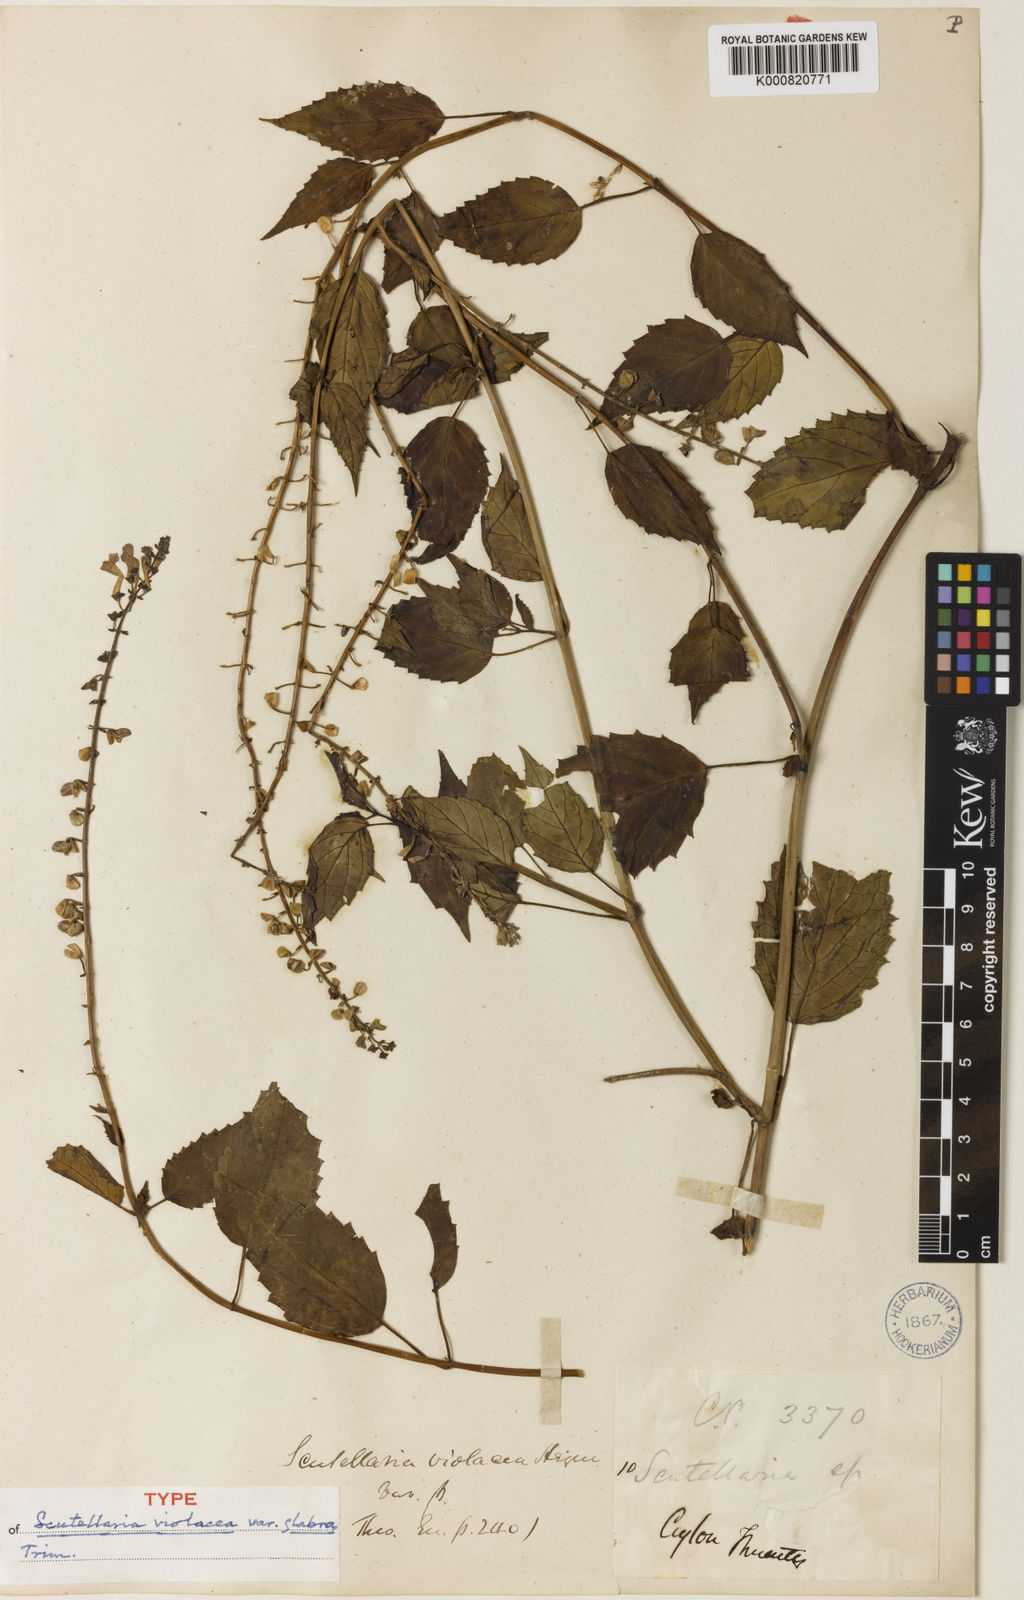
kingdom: Plantae
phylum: Tracheophyta
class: Magnoliopsida
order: Lamiales
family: Lamiaceae
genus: Scutellaria
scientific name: Scutellaria violacea
